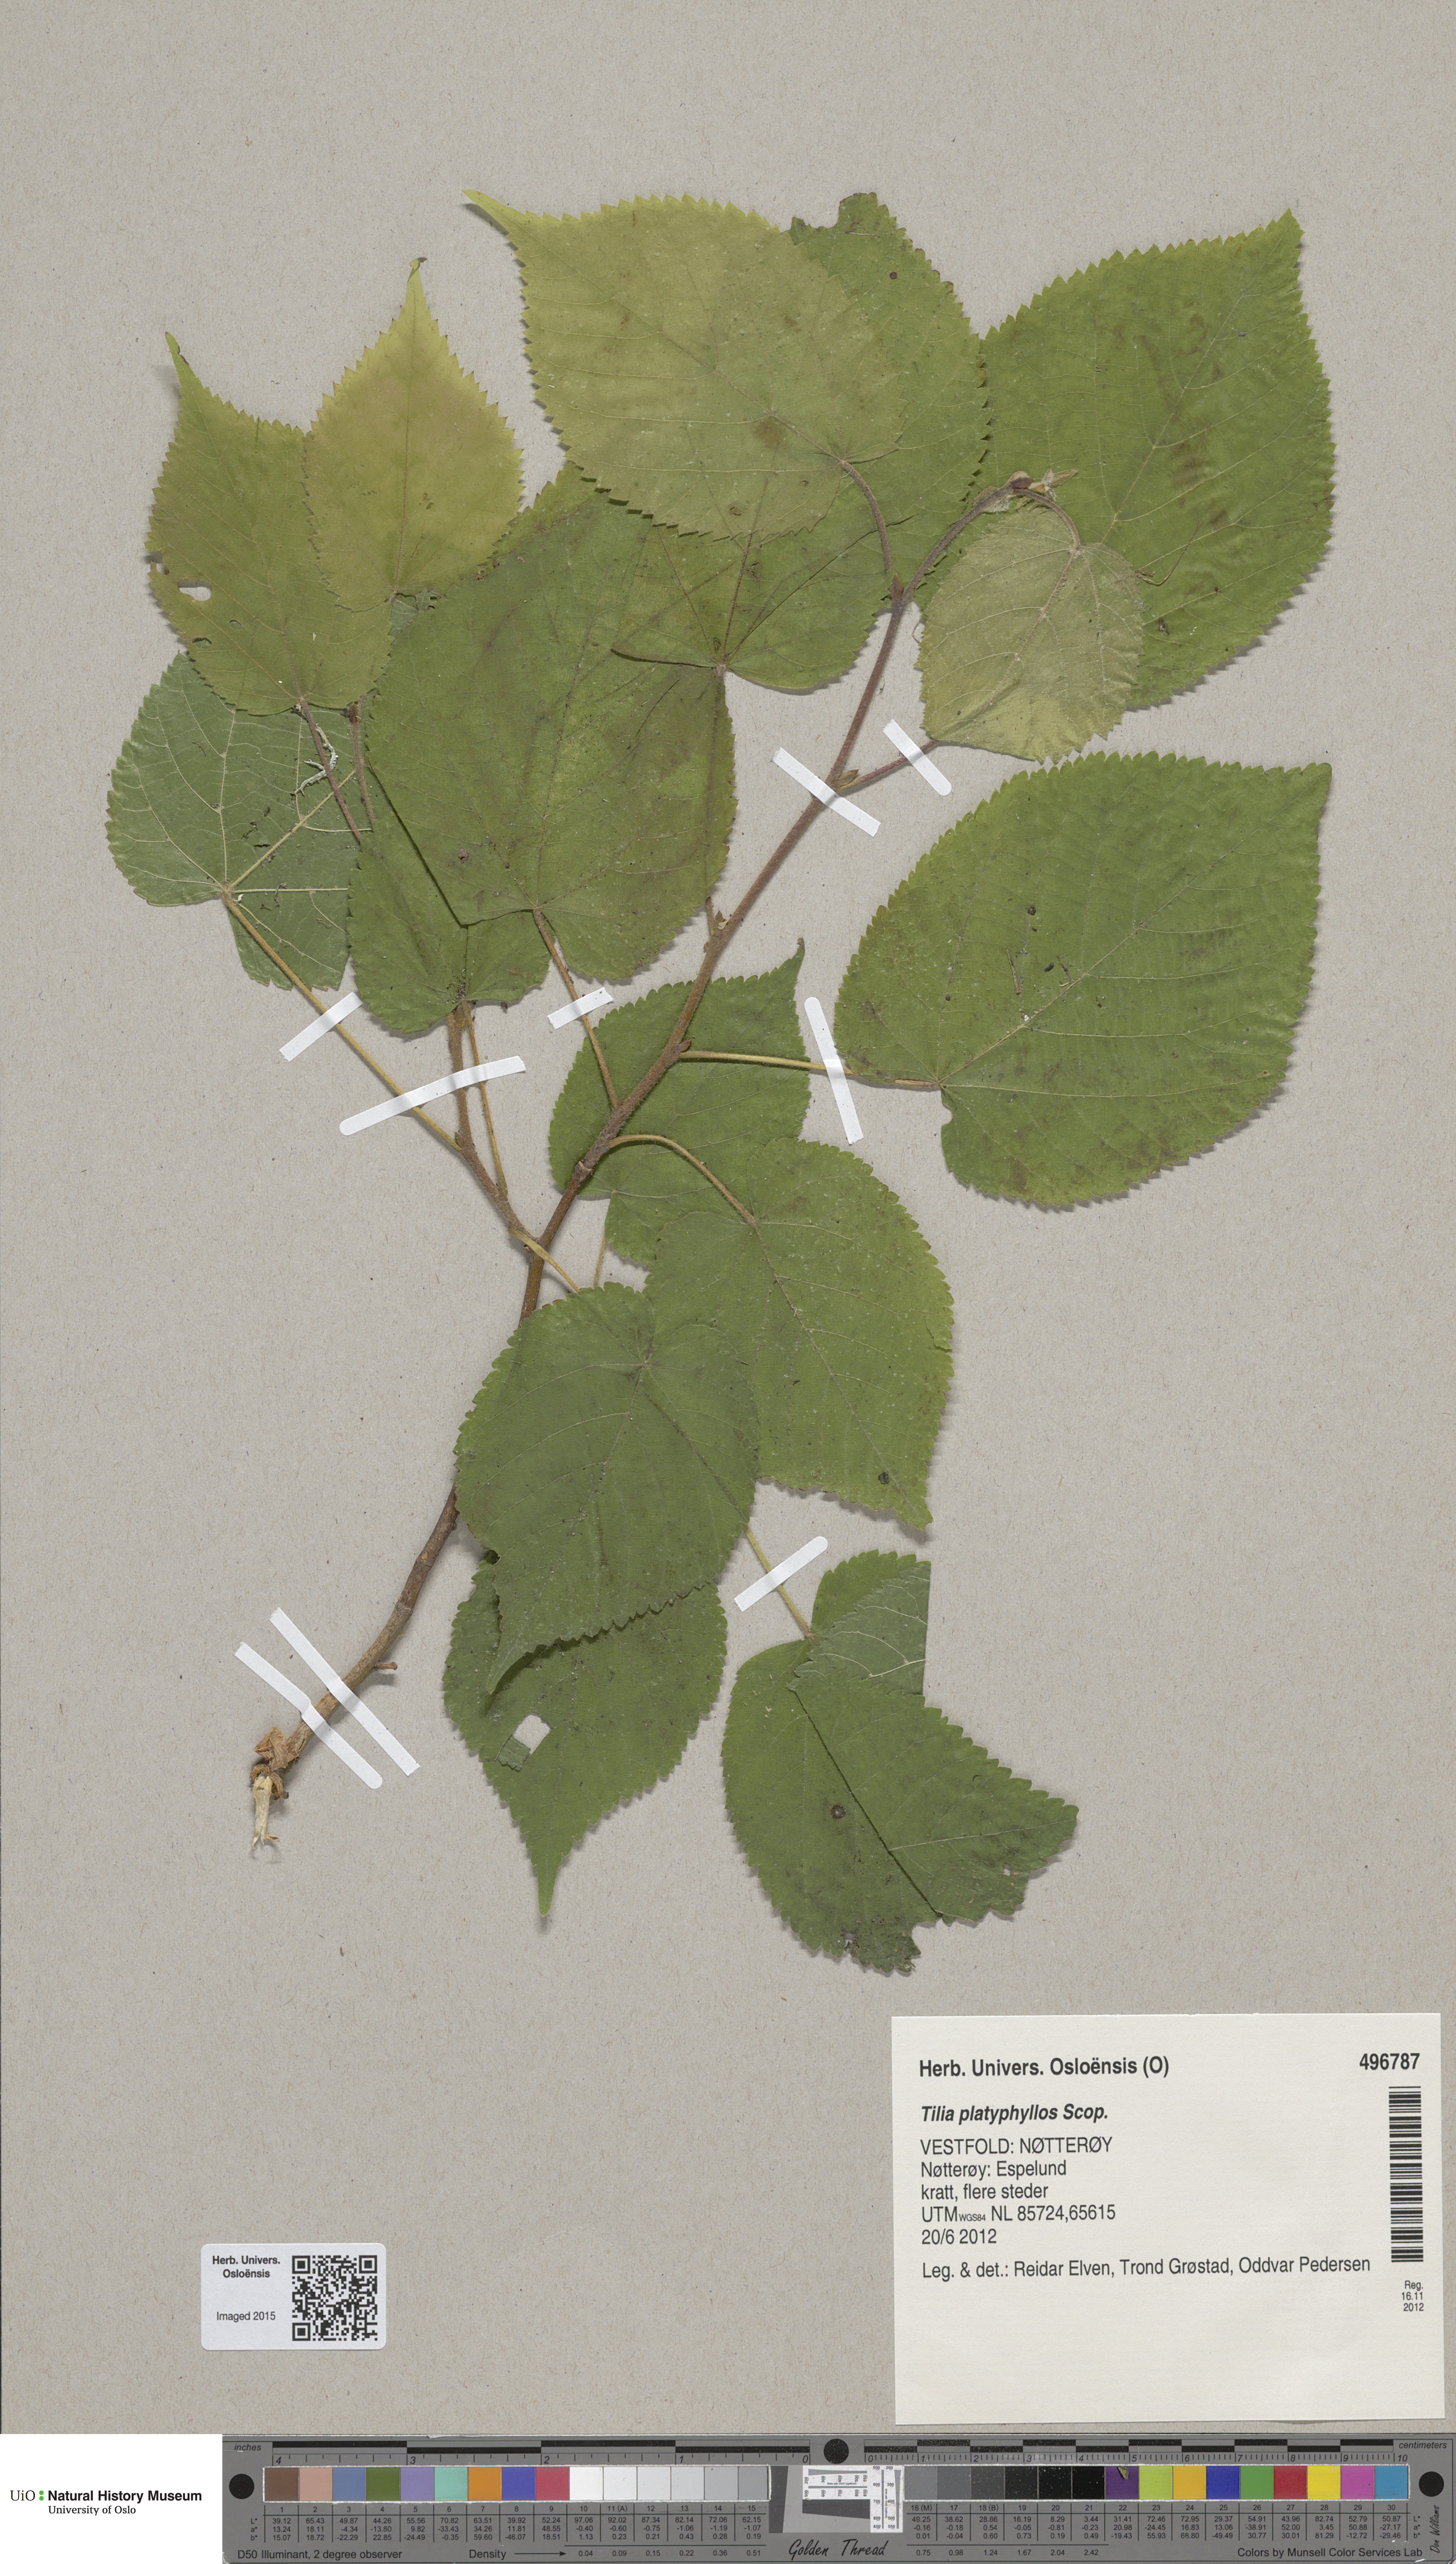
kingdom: Plantae
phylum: Tracheophyta
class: Magnoliopsida
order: Malvales
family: Malvaceae
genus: Tilia
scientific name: Tilia platyphyllos
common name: Large-leaved lime
